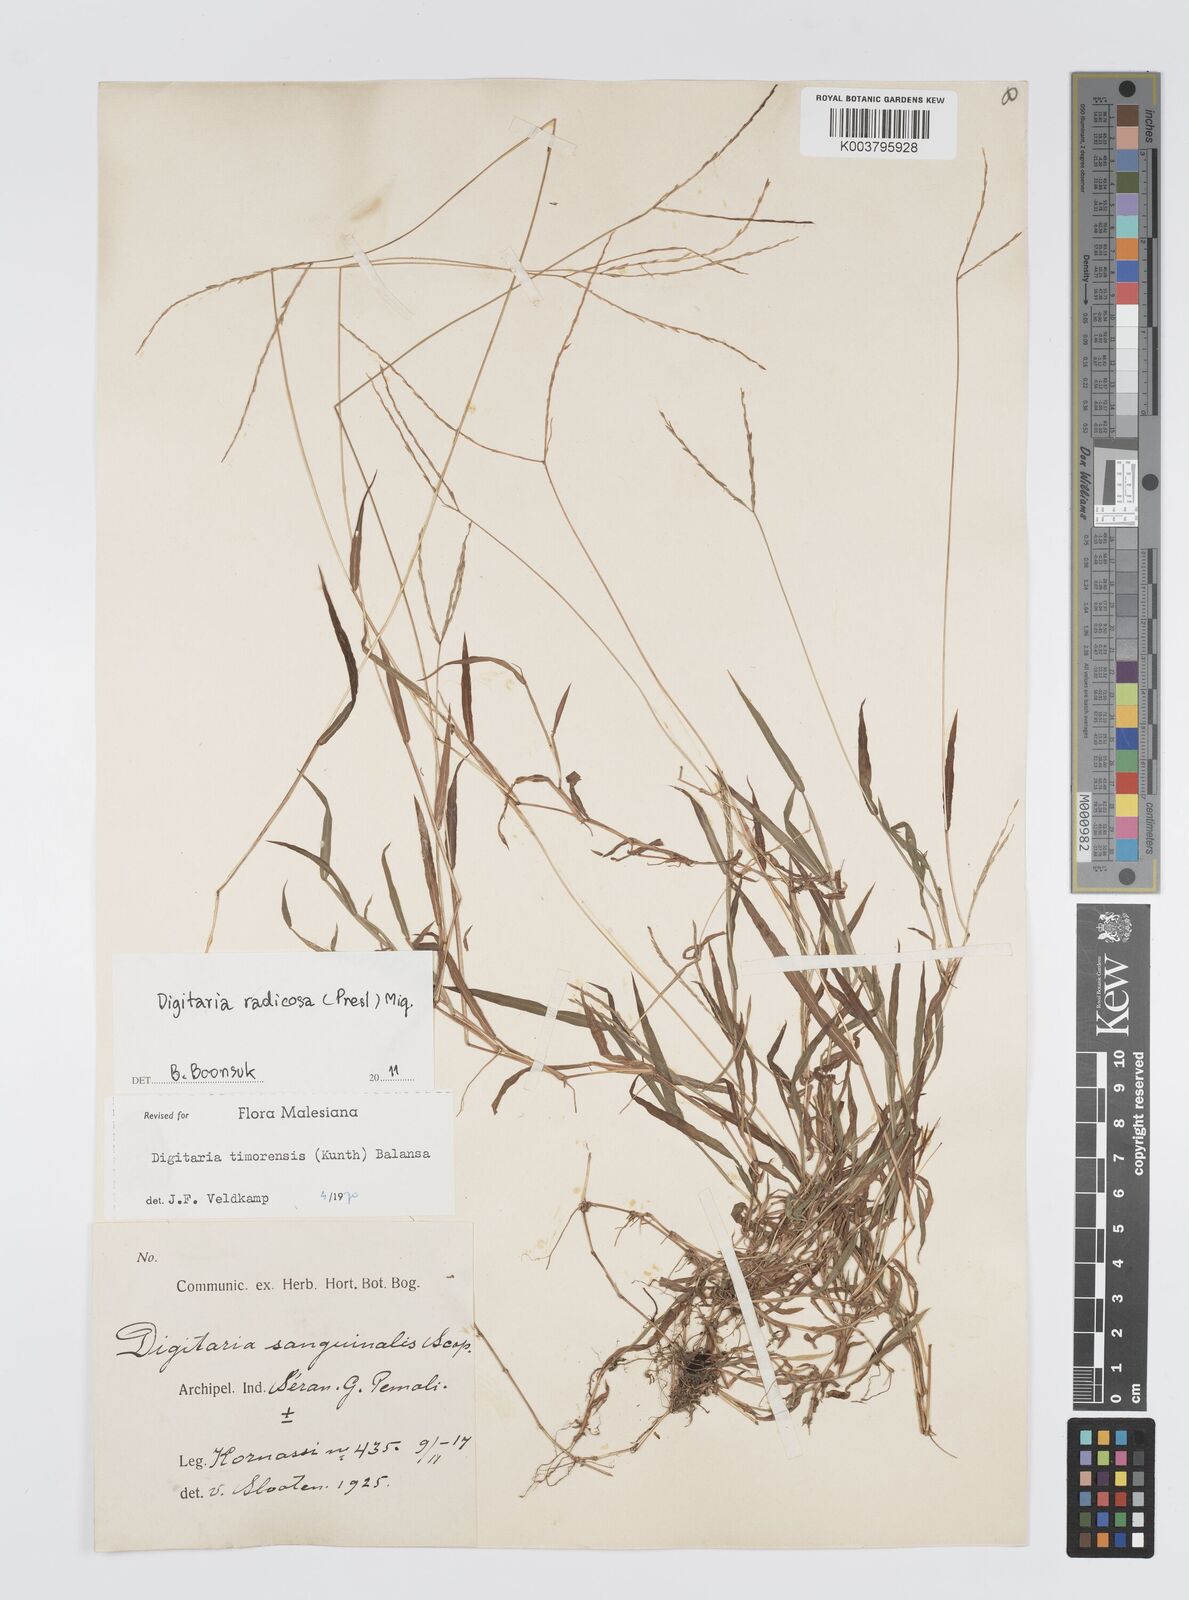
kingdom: Plantae
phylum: Tracheophyta
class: Liliopsida
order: Poales
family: Poaceae
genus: Digitaria
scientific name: Digitaria radicosa
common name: Trailing crabgrass
